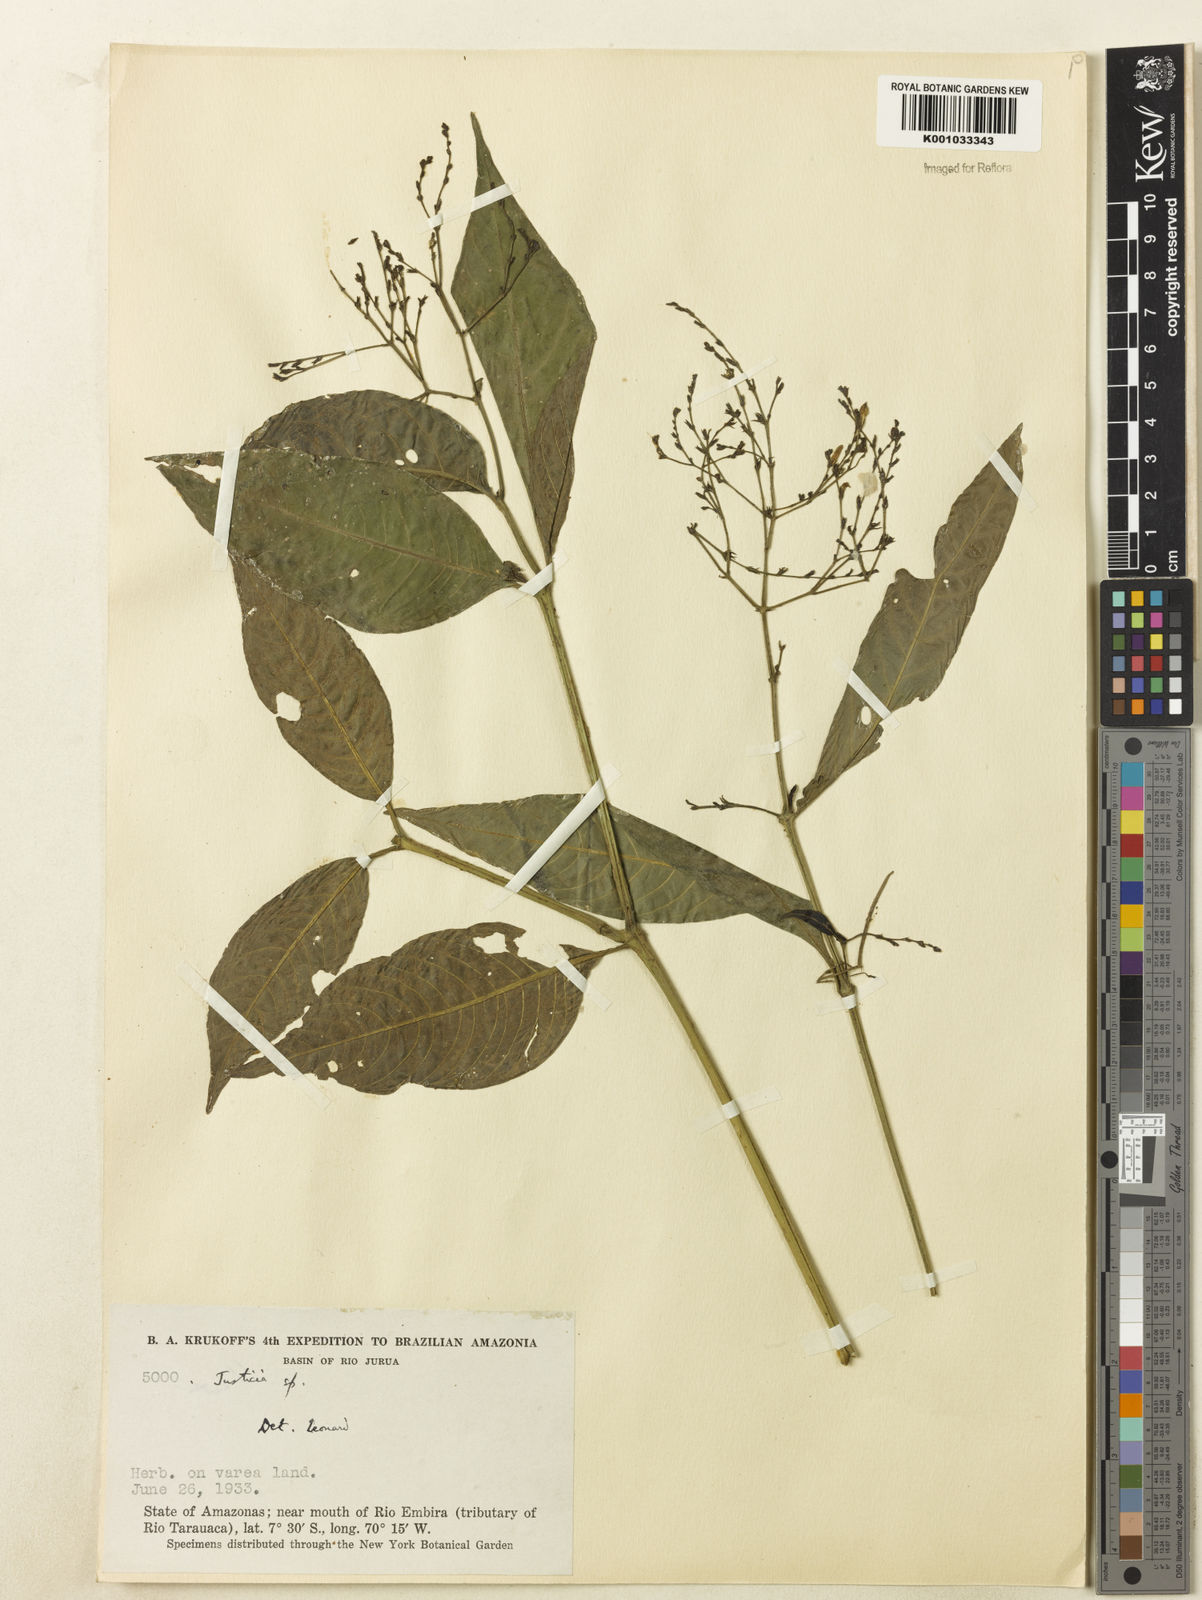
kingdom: Plantae
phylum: Tracheophyta
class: Magnoliopsida
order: Lamiales
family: Acanthaceae
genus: Dianthera
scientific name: Dianthera pectoralis
